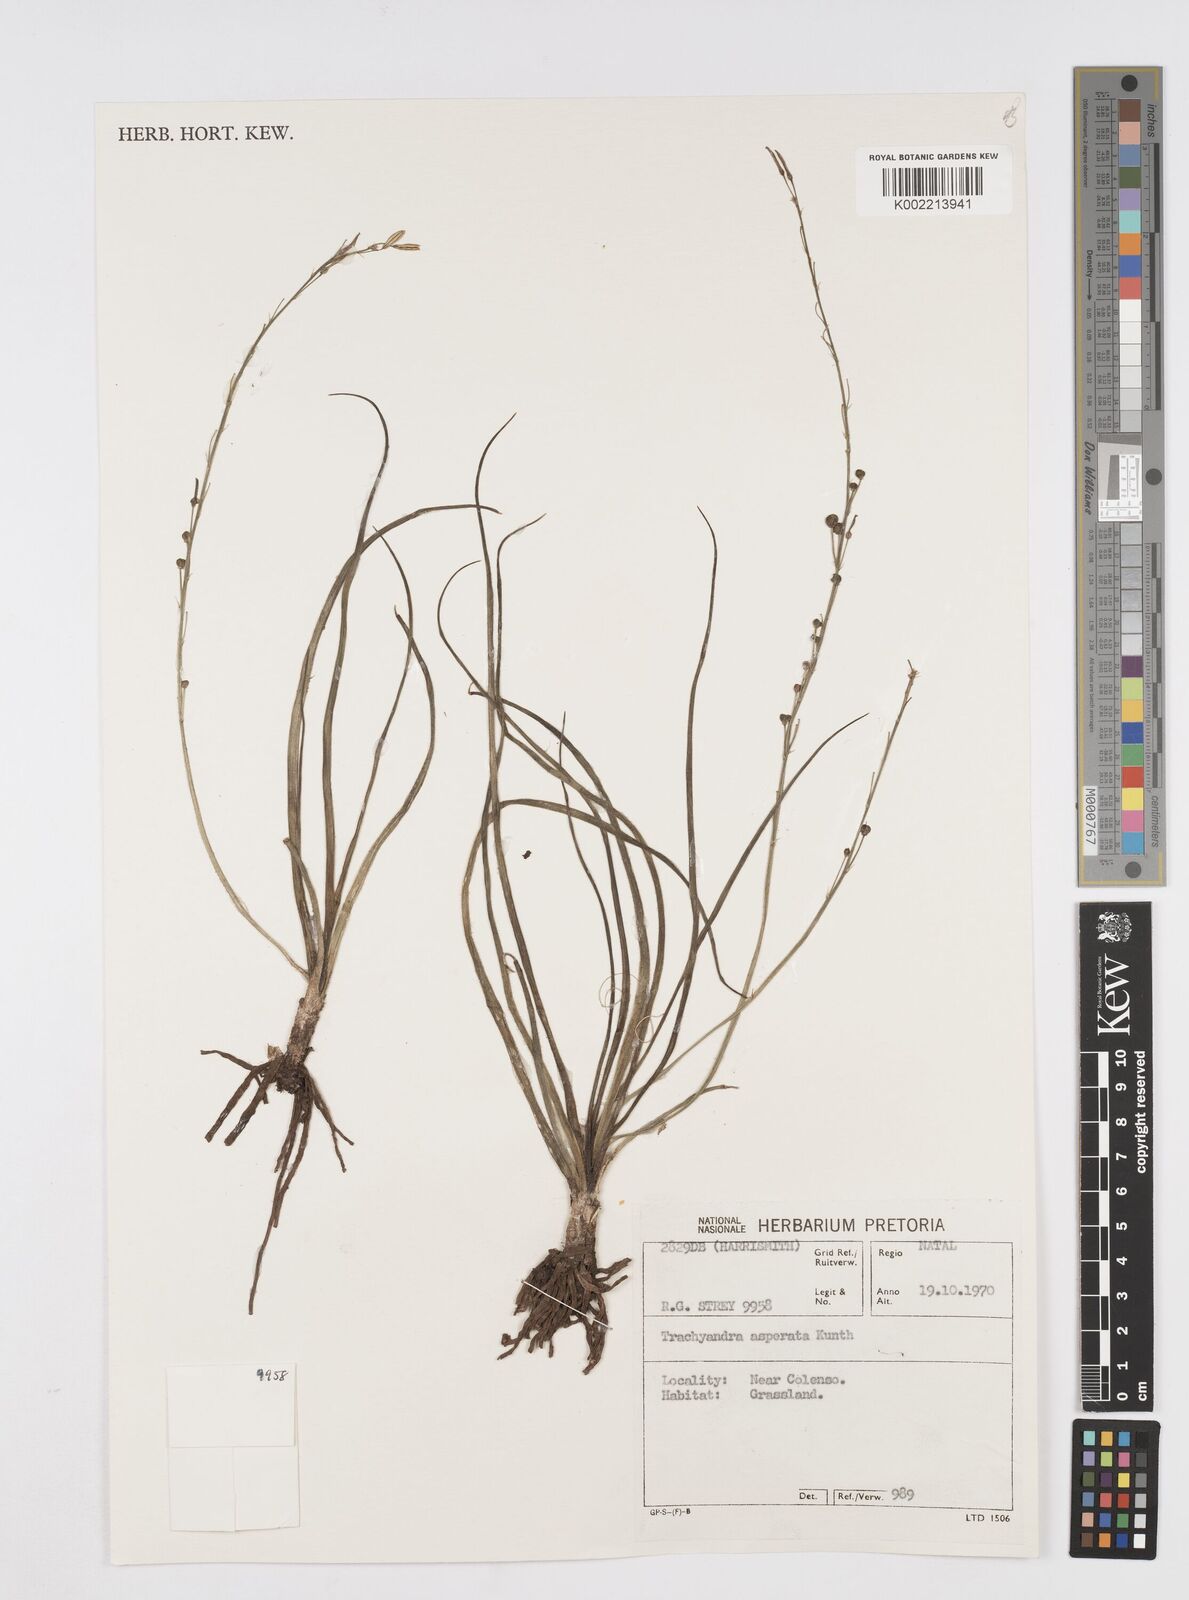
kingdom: Plantae
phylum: Tracheophyta
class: Liliopsida
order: Asparagales
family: Asphodelaceae
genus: Trachyandra
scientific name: Trachyandra asperata
